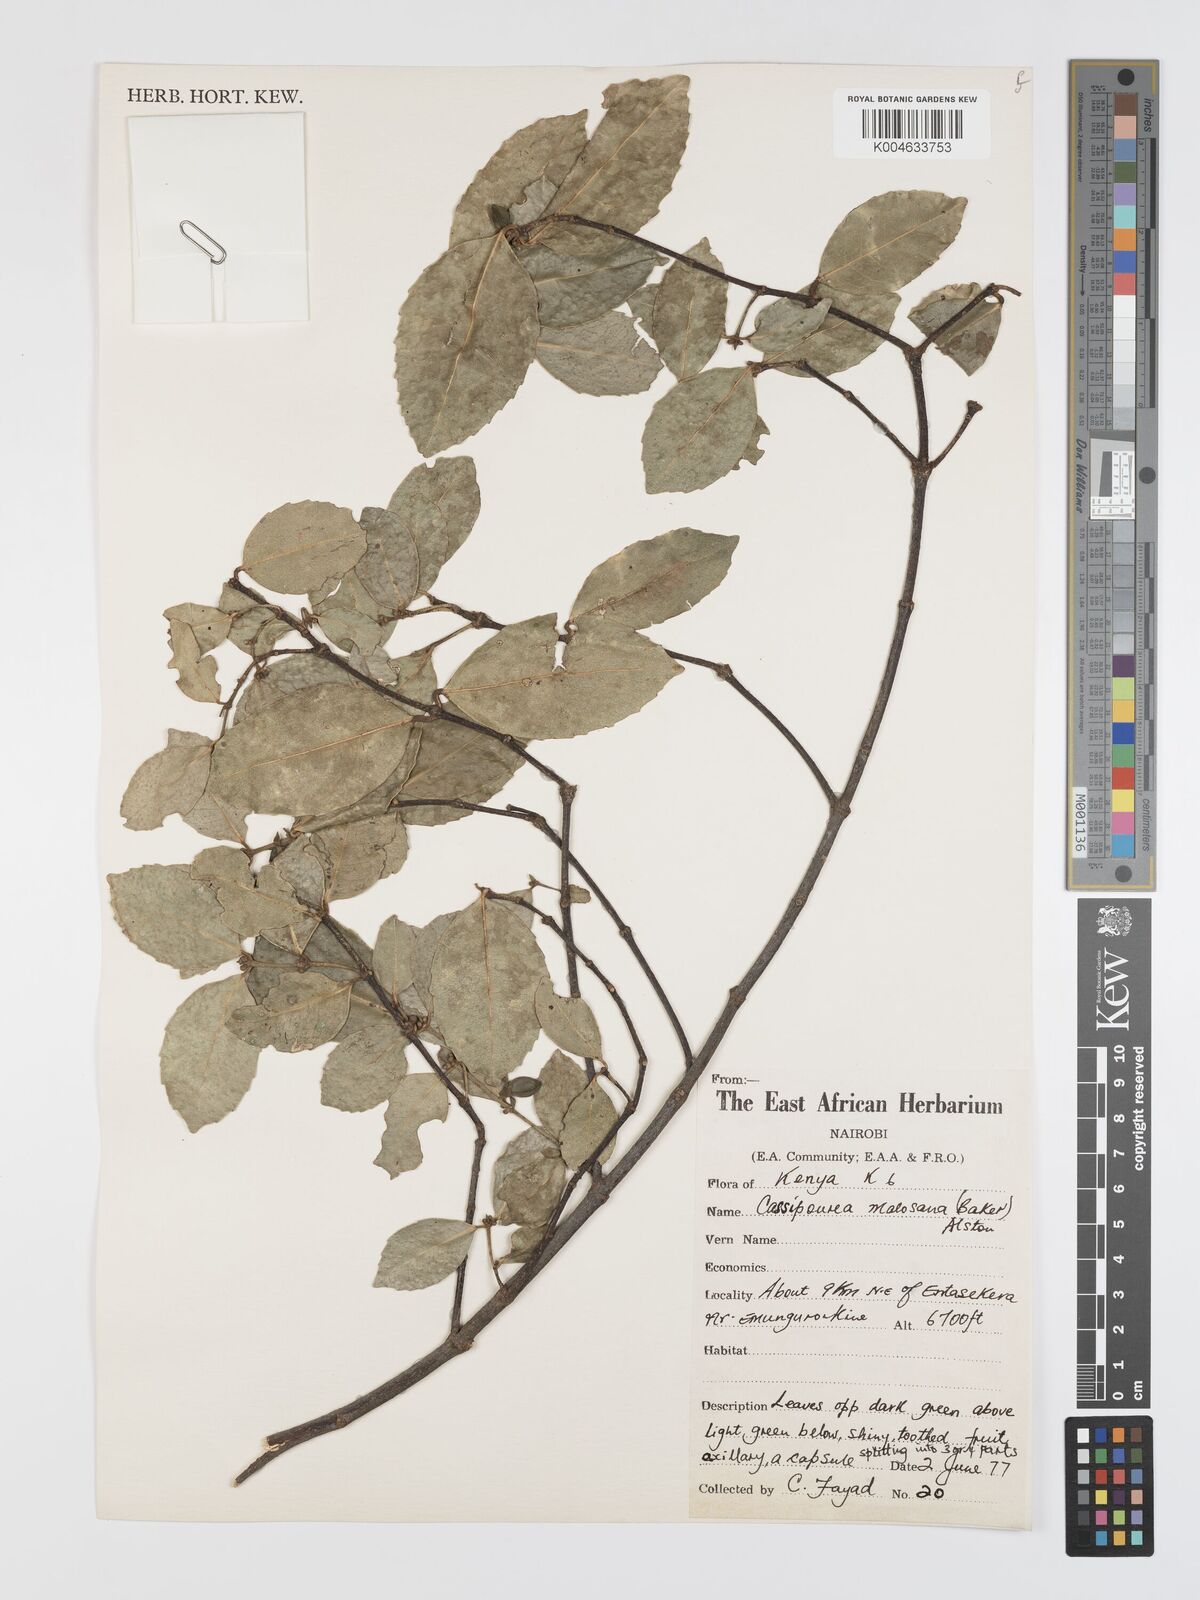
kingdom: Plantae
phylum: Tracheophyta
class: Magnoliopsida
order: Malpighiales
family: Rhizophoraceae
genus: Cassipourea
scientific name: Cassipourea
